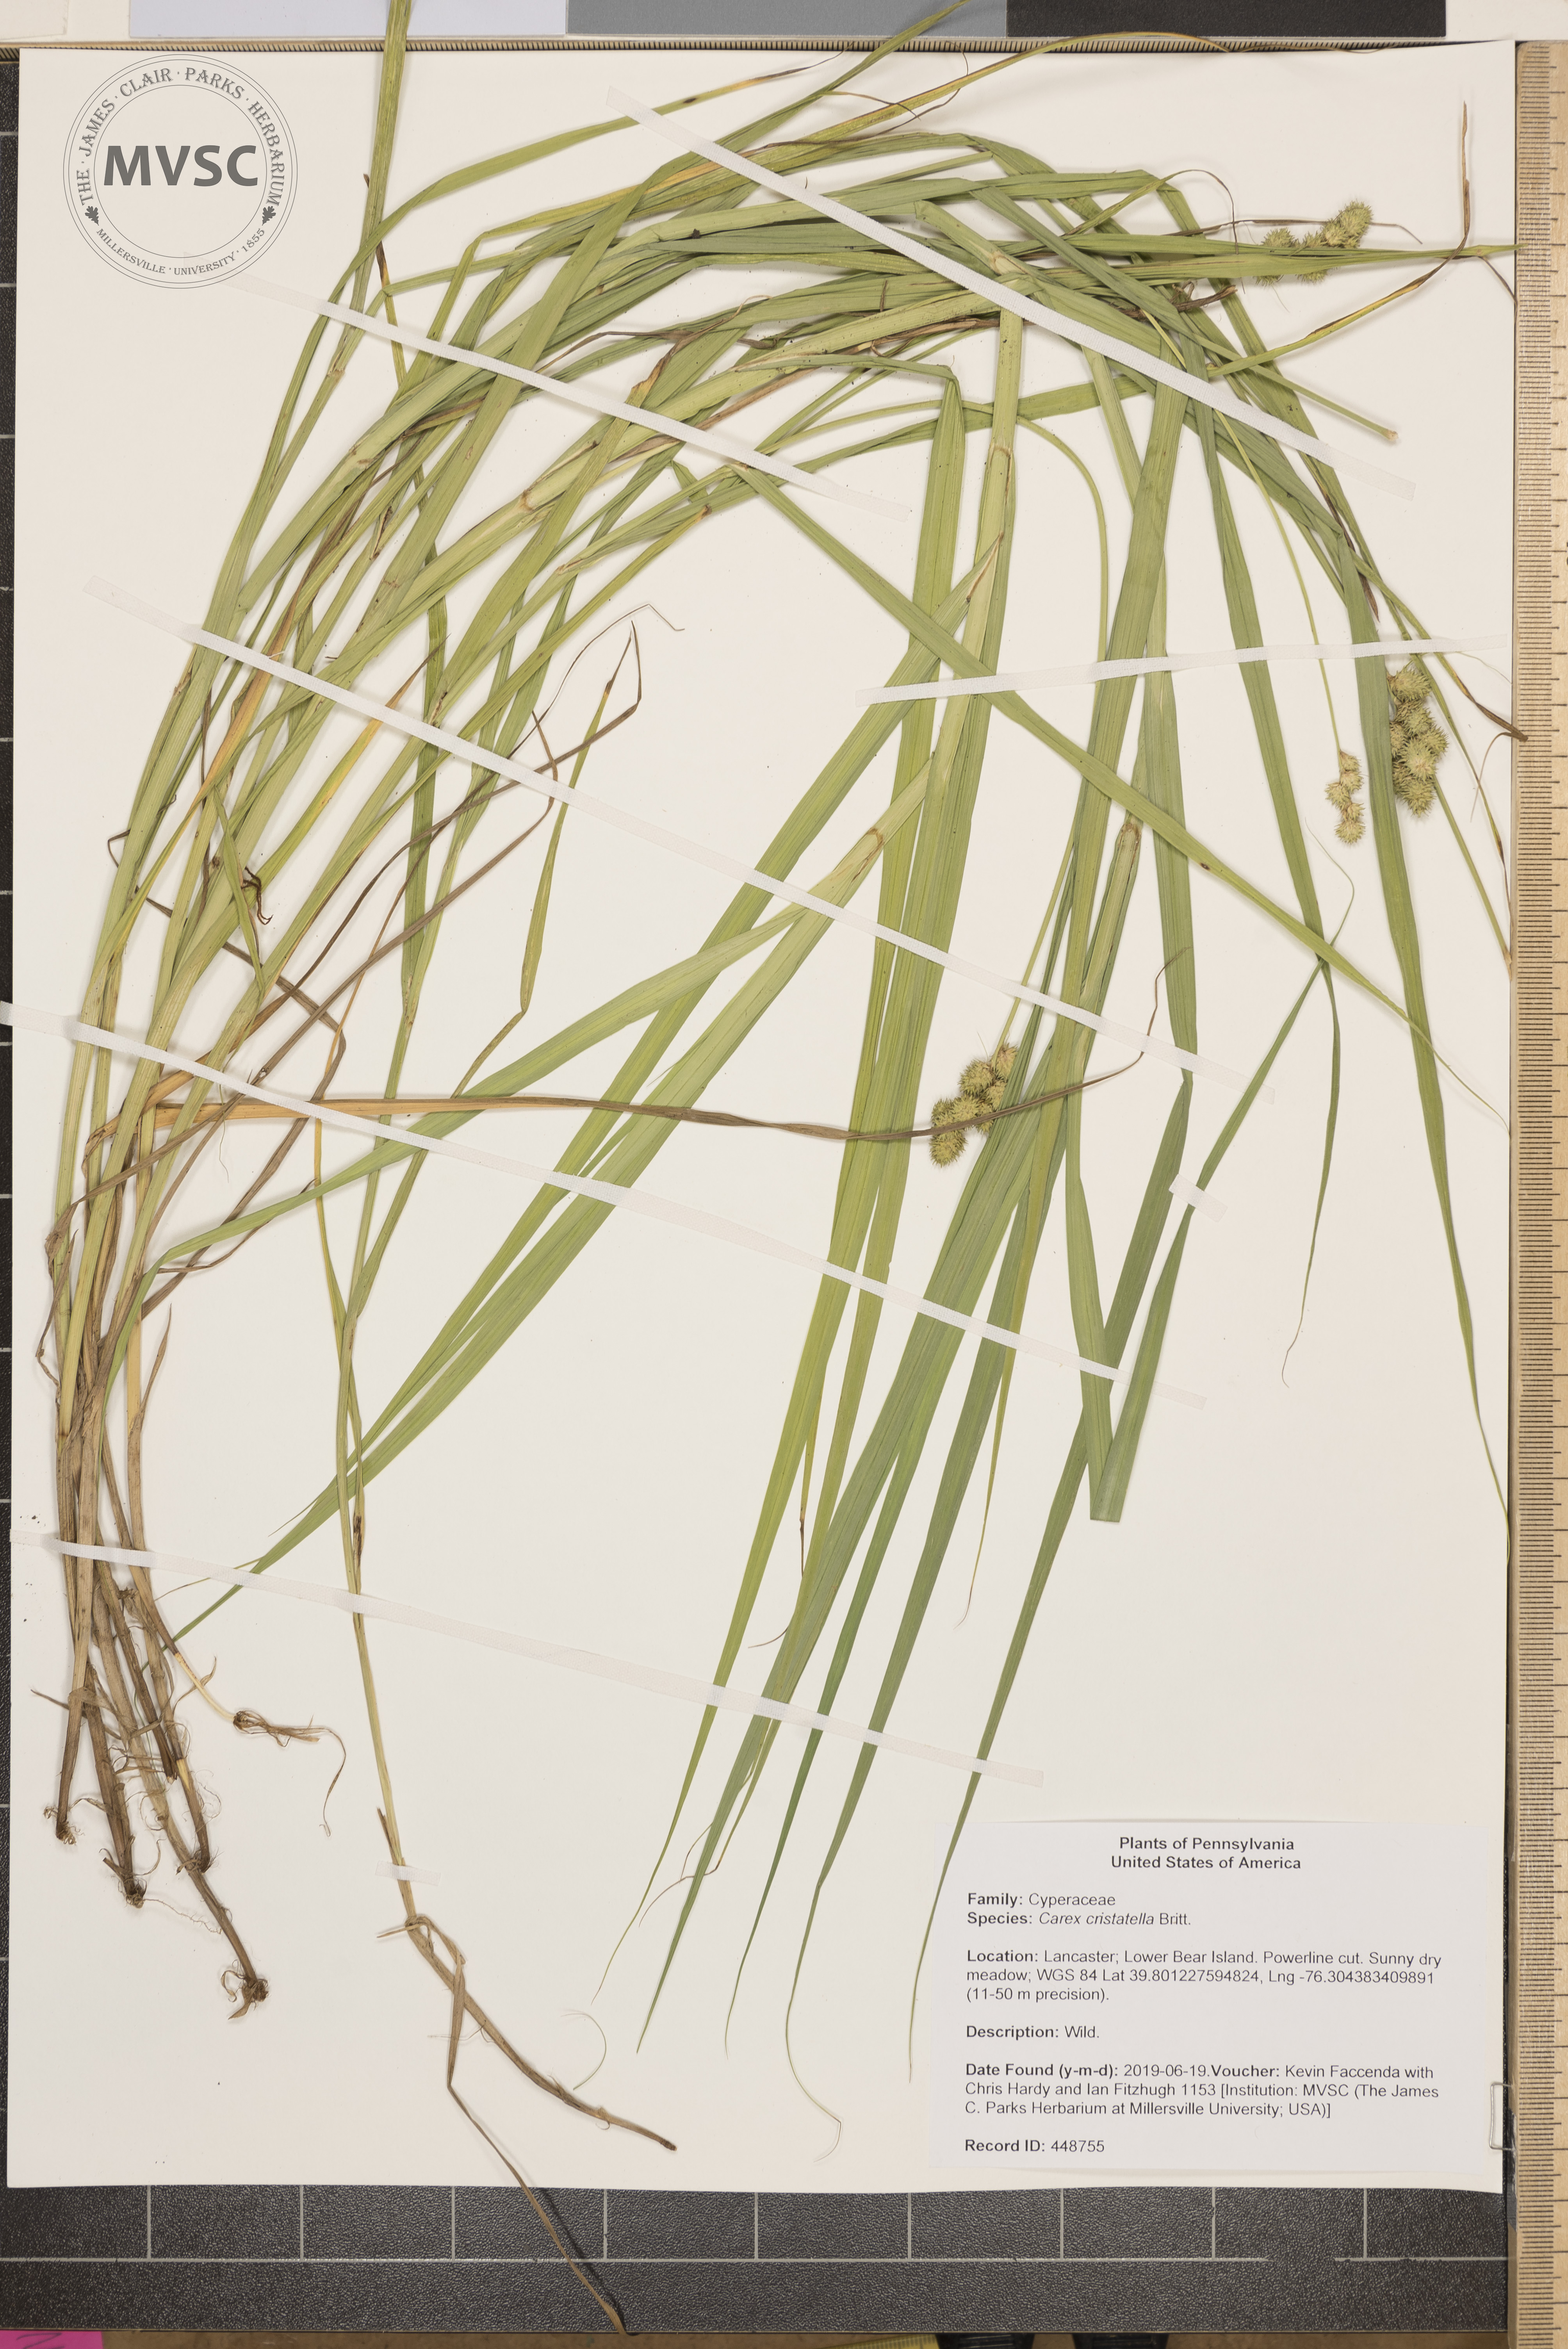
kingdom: Plantae
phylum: Tracheophyta
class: Liliopsida
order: Poales
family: Cyperaceae
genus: Carex
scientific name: Carex cristatella
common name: Crested oval sedge
